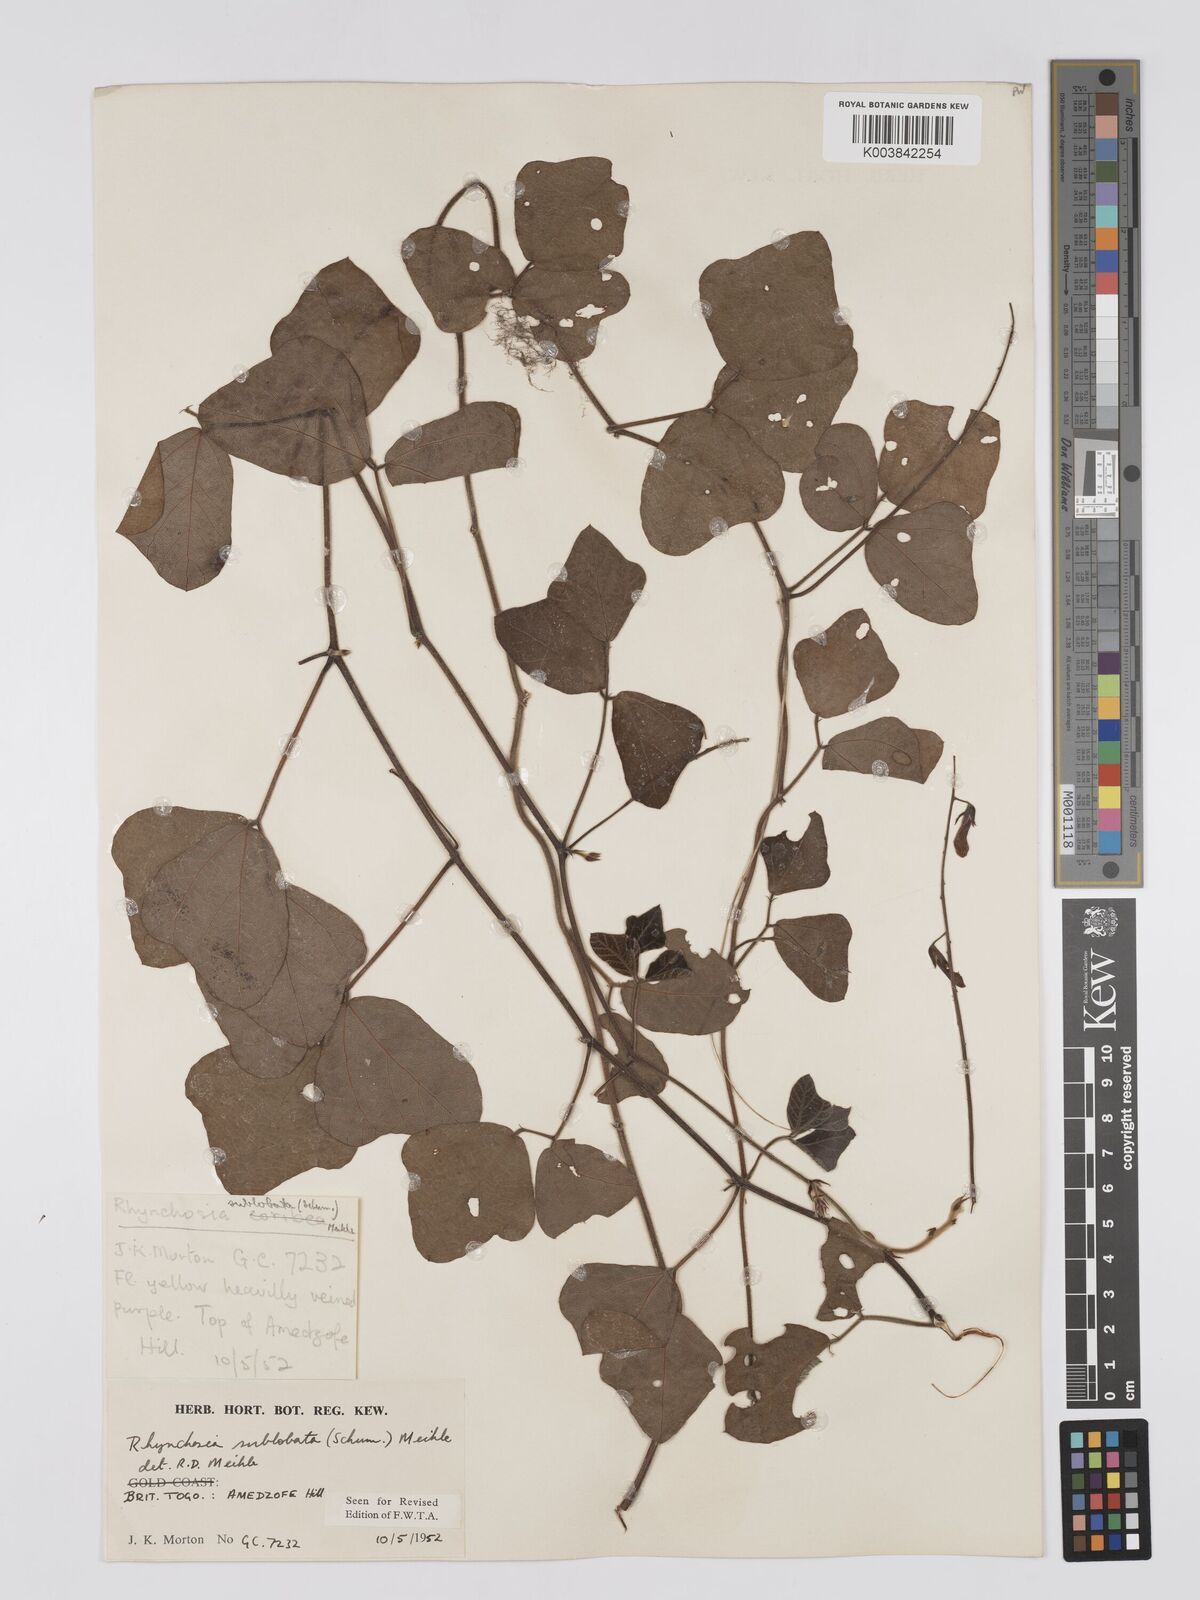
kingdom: Plantae
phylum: Tracheophyta
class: Magnoliopsida
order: Fabales
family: Fabaceae
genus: Rhynchosia
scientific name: Rhynchosia sublobata
